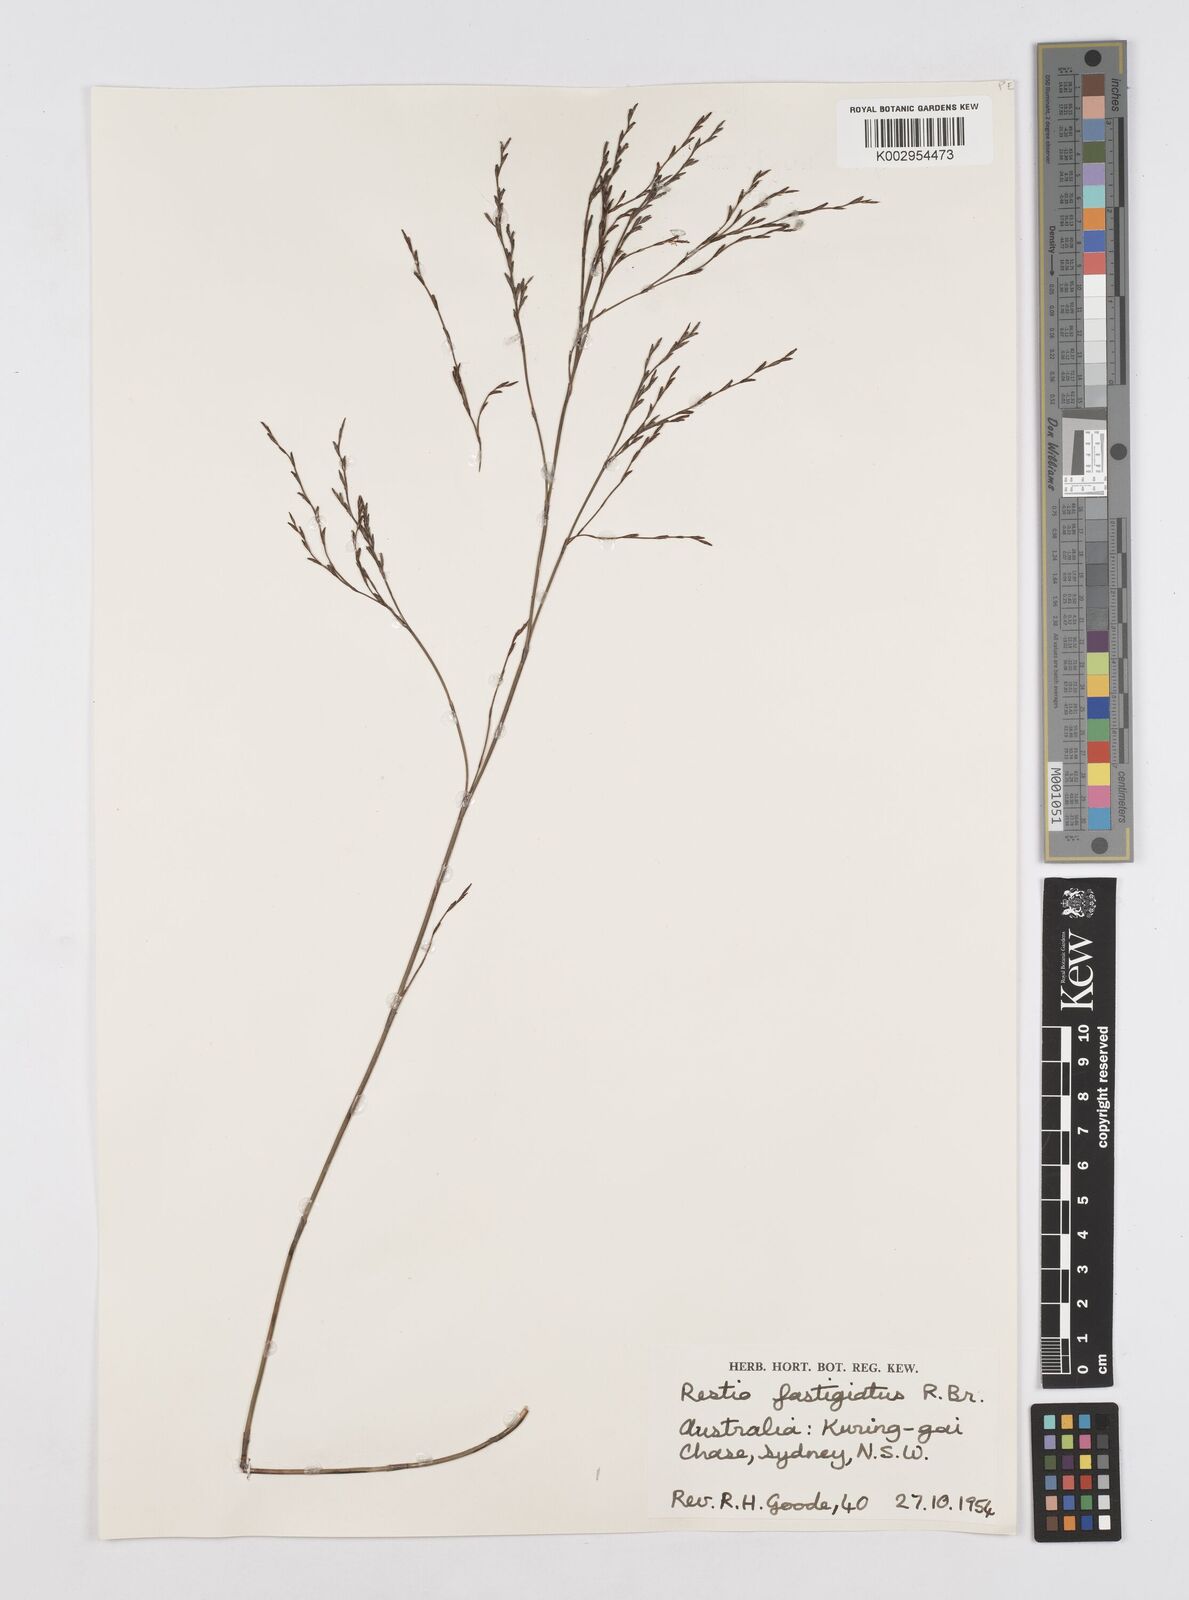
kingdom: Plantae
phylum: Tracheophyta
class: Liliopsida
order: Poales
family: Restionaceae
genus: Chordifex
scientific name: Chordifex fastigiatus
